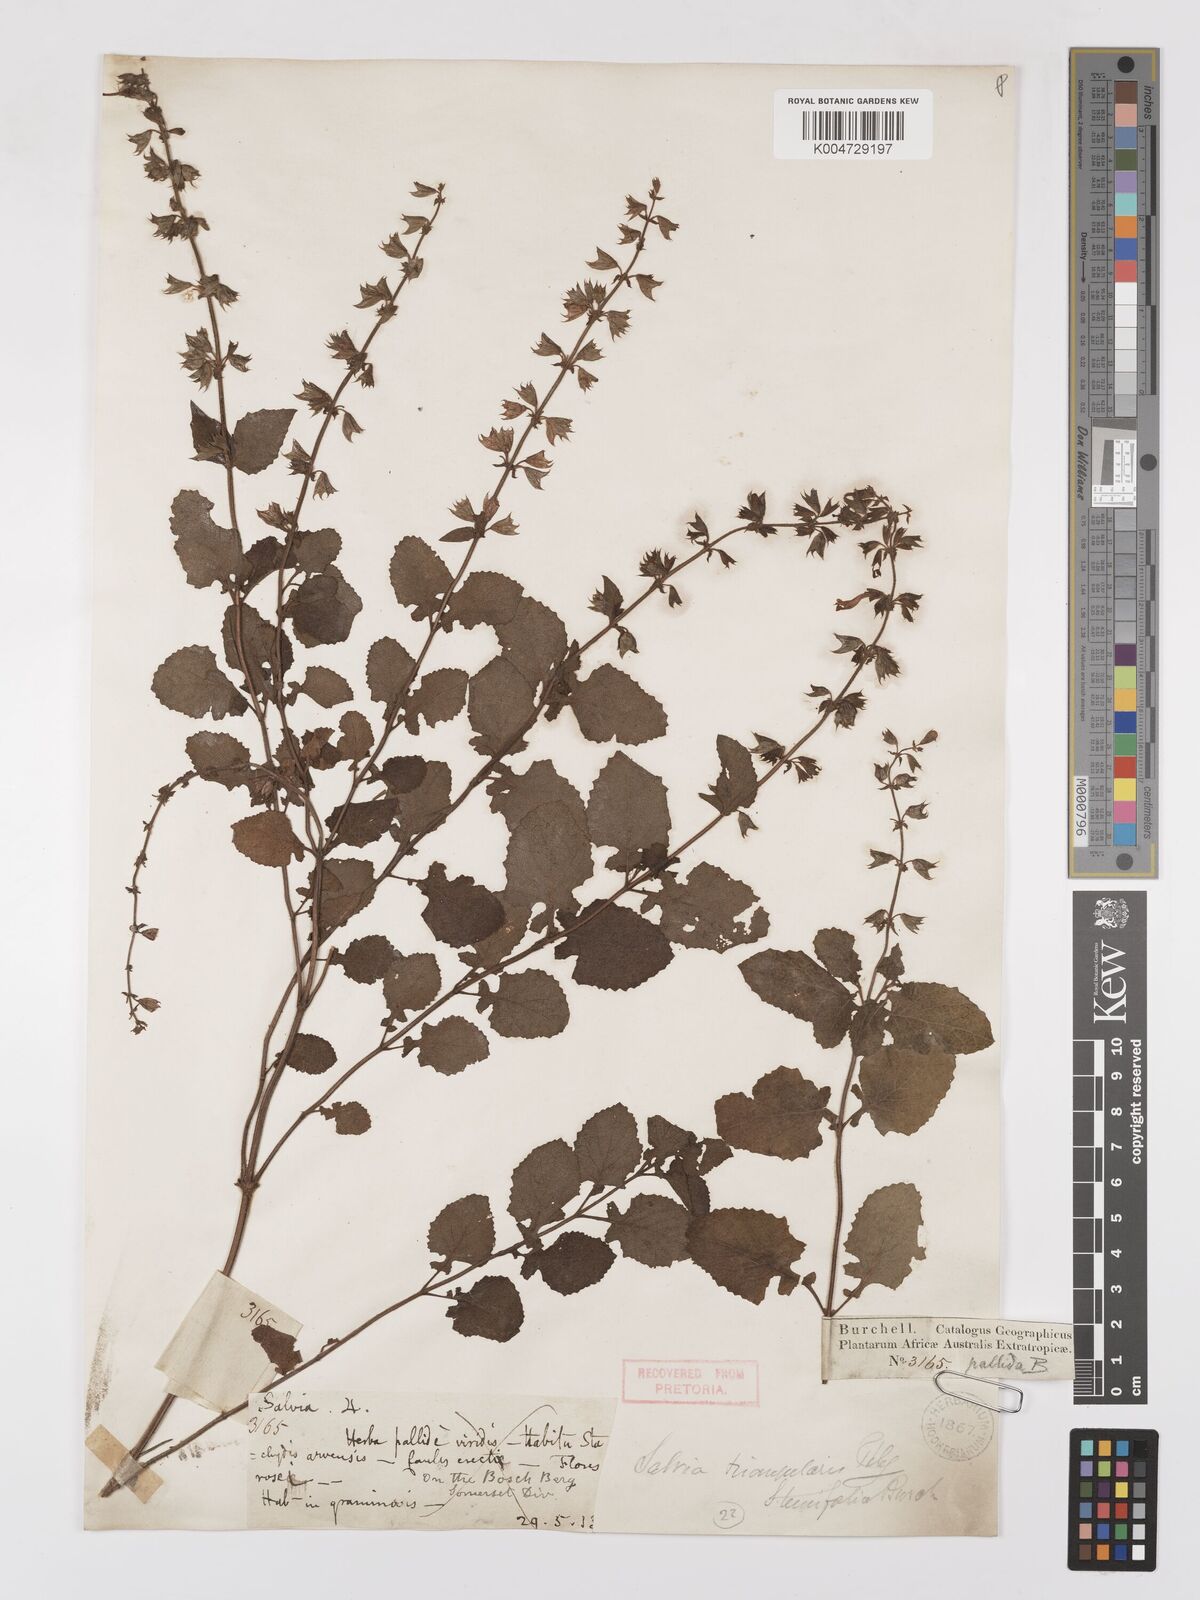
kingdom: Plantae
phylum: Tracheophyta
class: Magnoliopsida
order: Lamiales
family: Lamiaceae
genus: Salvia
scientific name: Salvia triangularis
